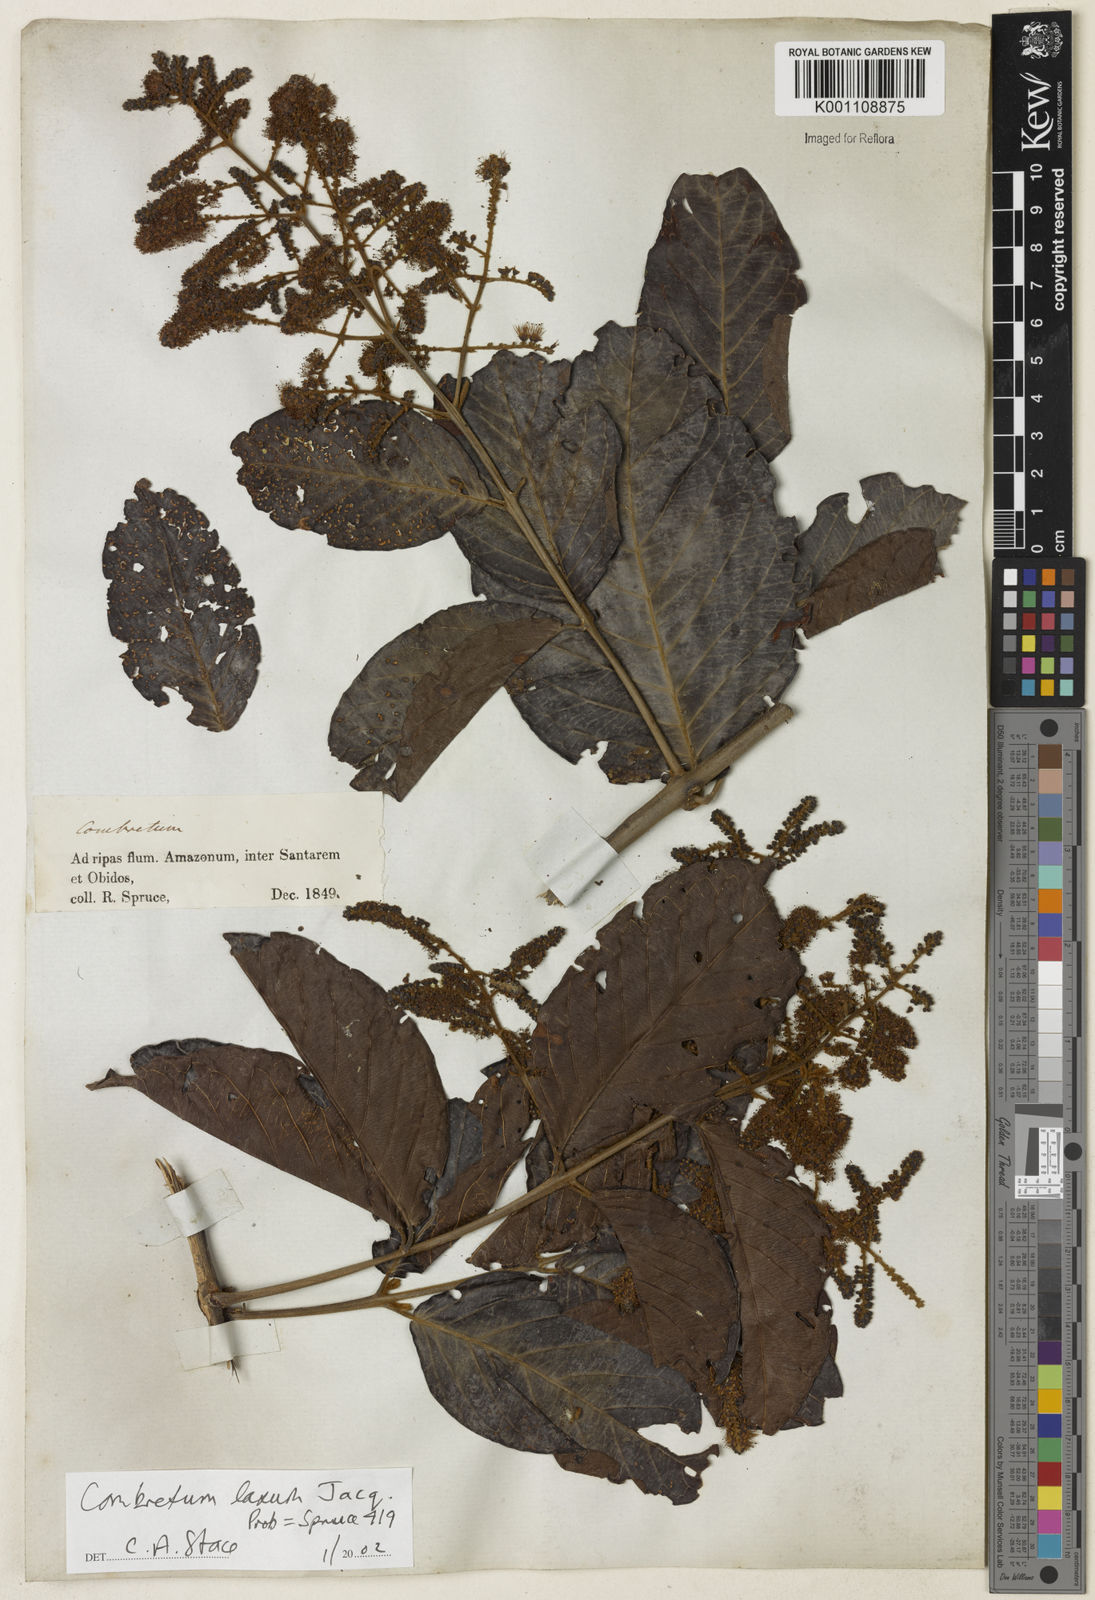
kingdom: Plantae
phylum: Tracheophyta
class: Magnoliopsida
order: Myrtales
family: Combretaceae
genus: Combretum
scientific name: Combretum laxum
